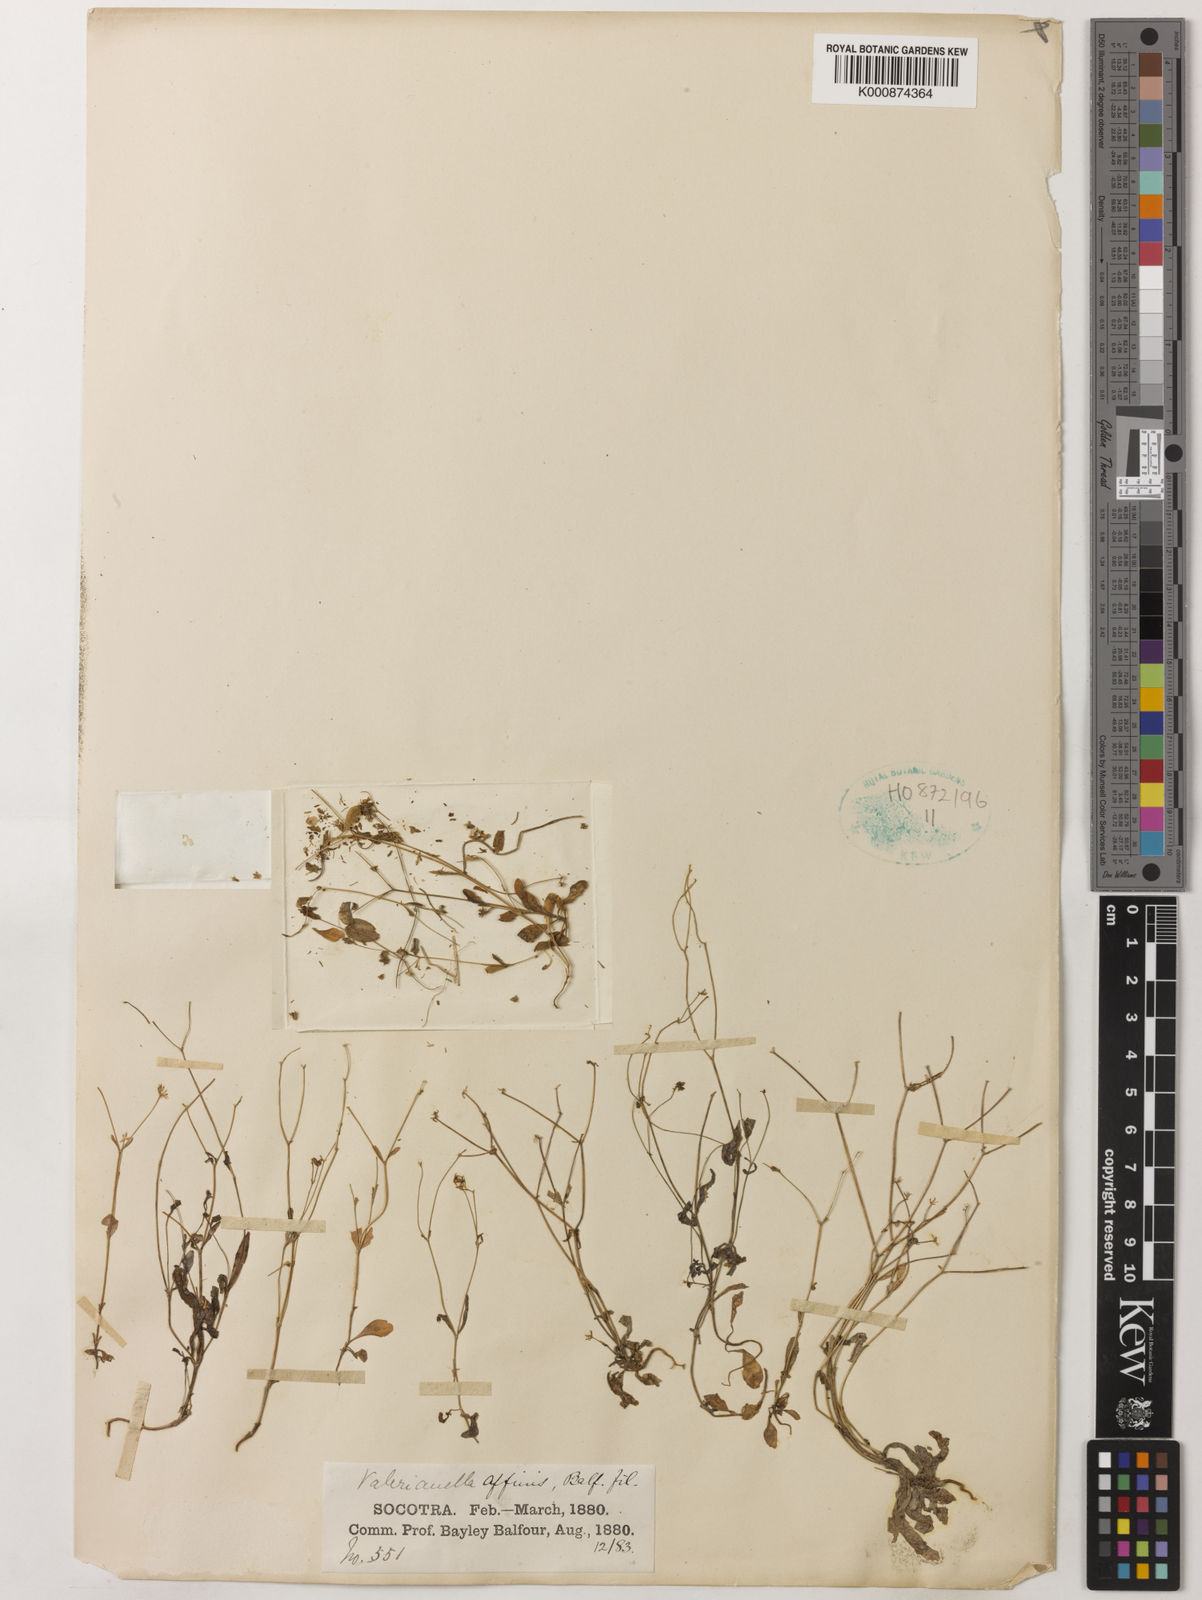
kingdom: Plantae
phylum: Tracheophyta
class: Magnoliopsida
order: Dipsacales
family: Caprifoliaceae
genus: Valerianella
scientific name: Valerianella affinis
